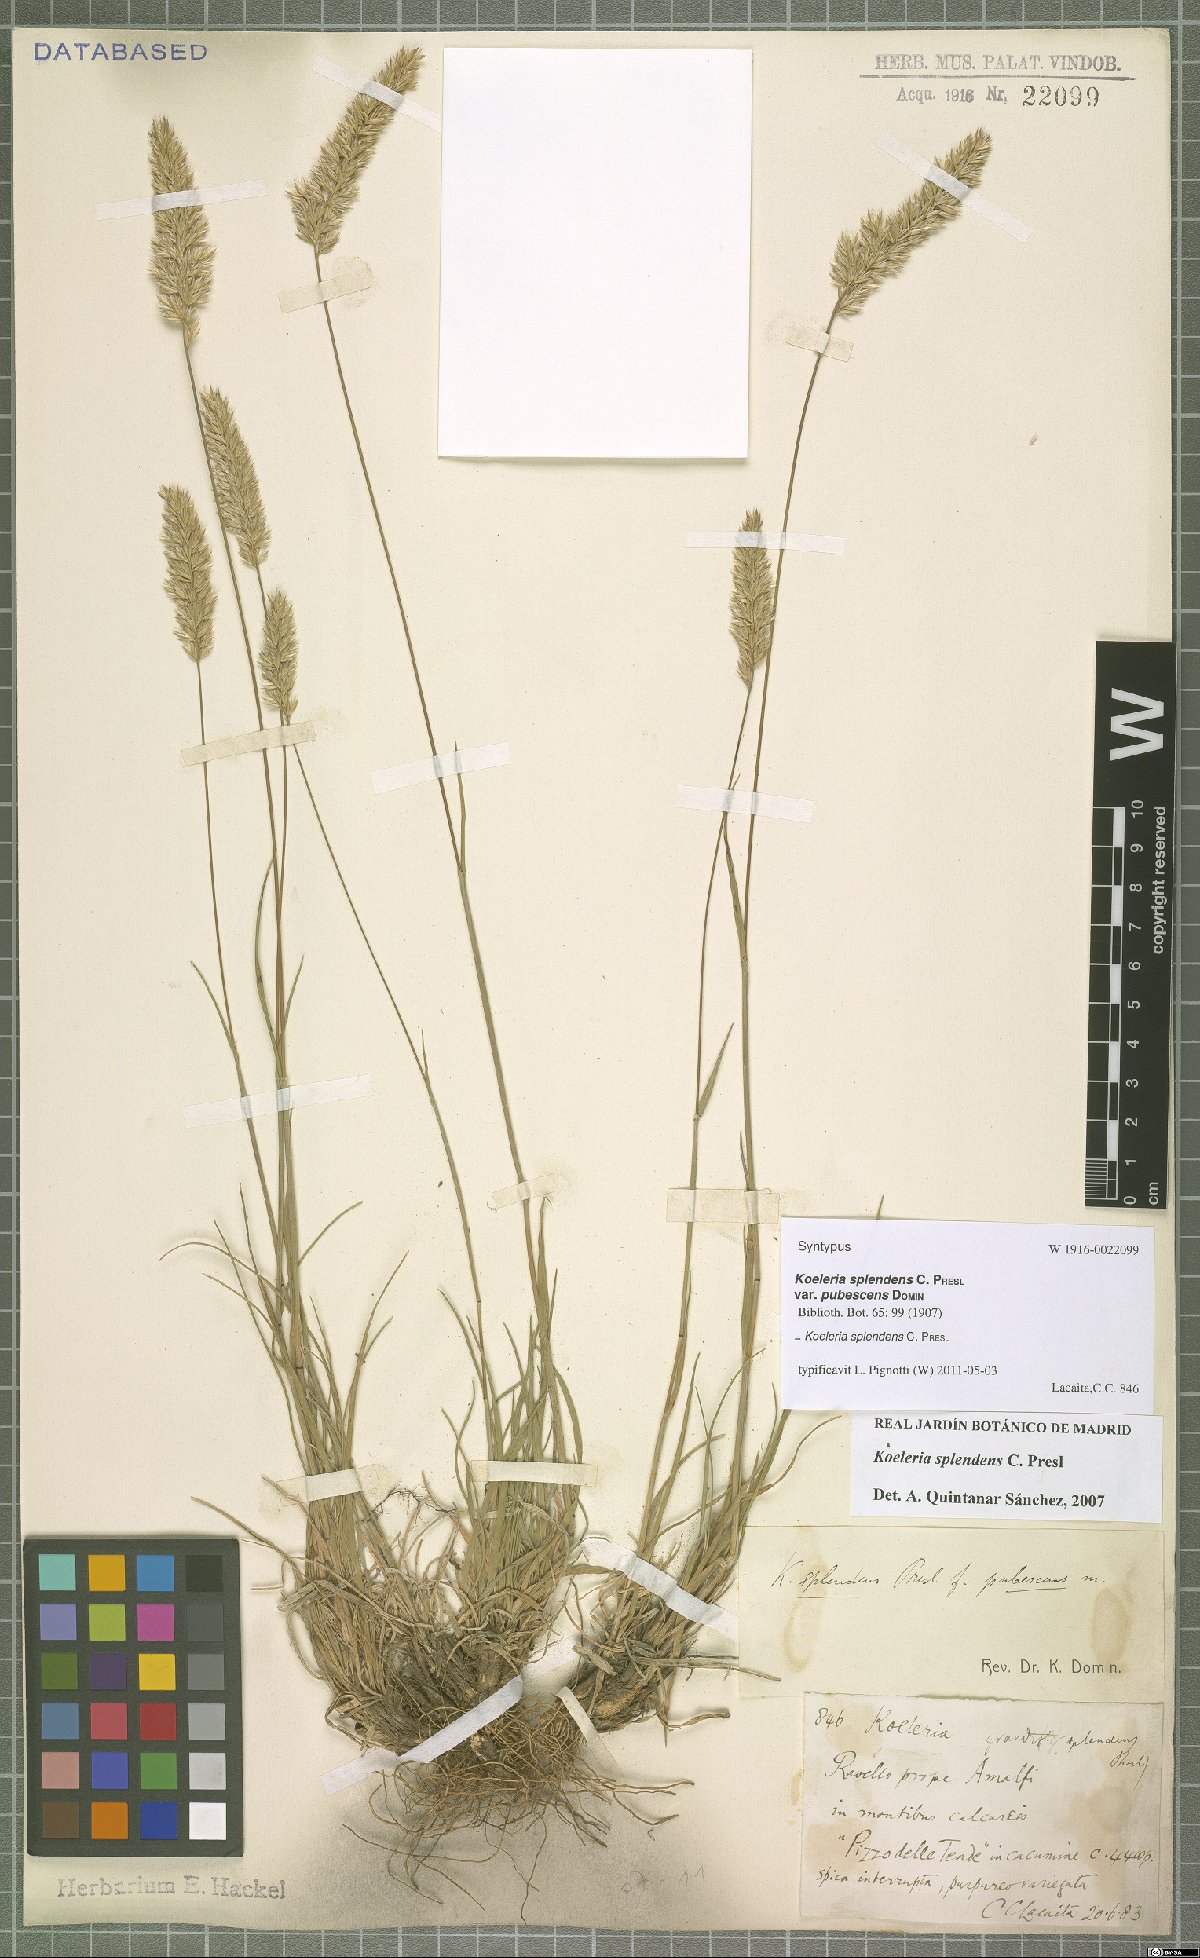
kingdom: Plantae
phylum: Tracheophyta
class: Liliopsida
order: Poales
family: Poaceae
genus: Koeleria
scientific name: Koeleria splendens
